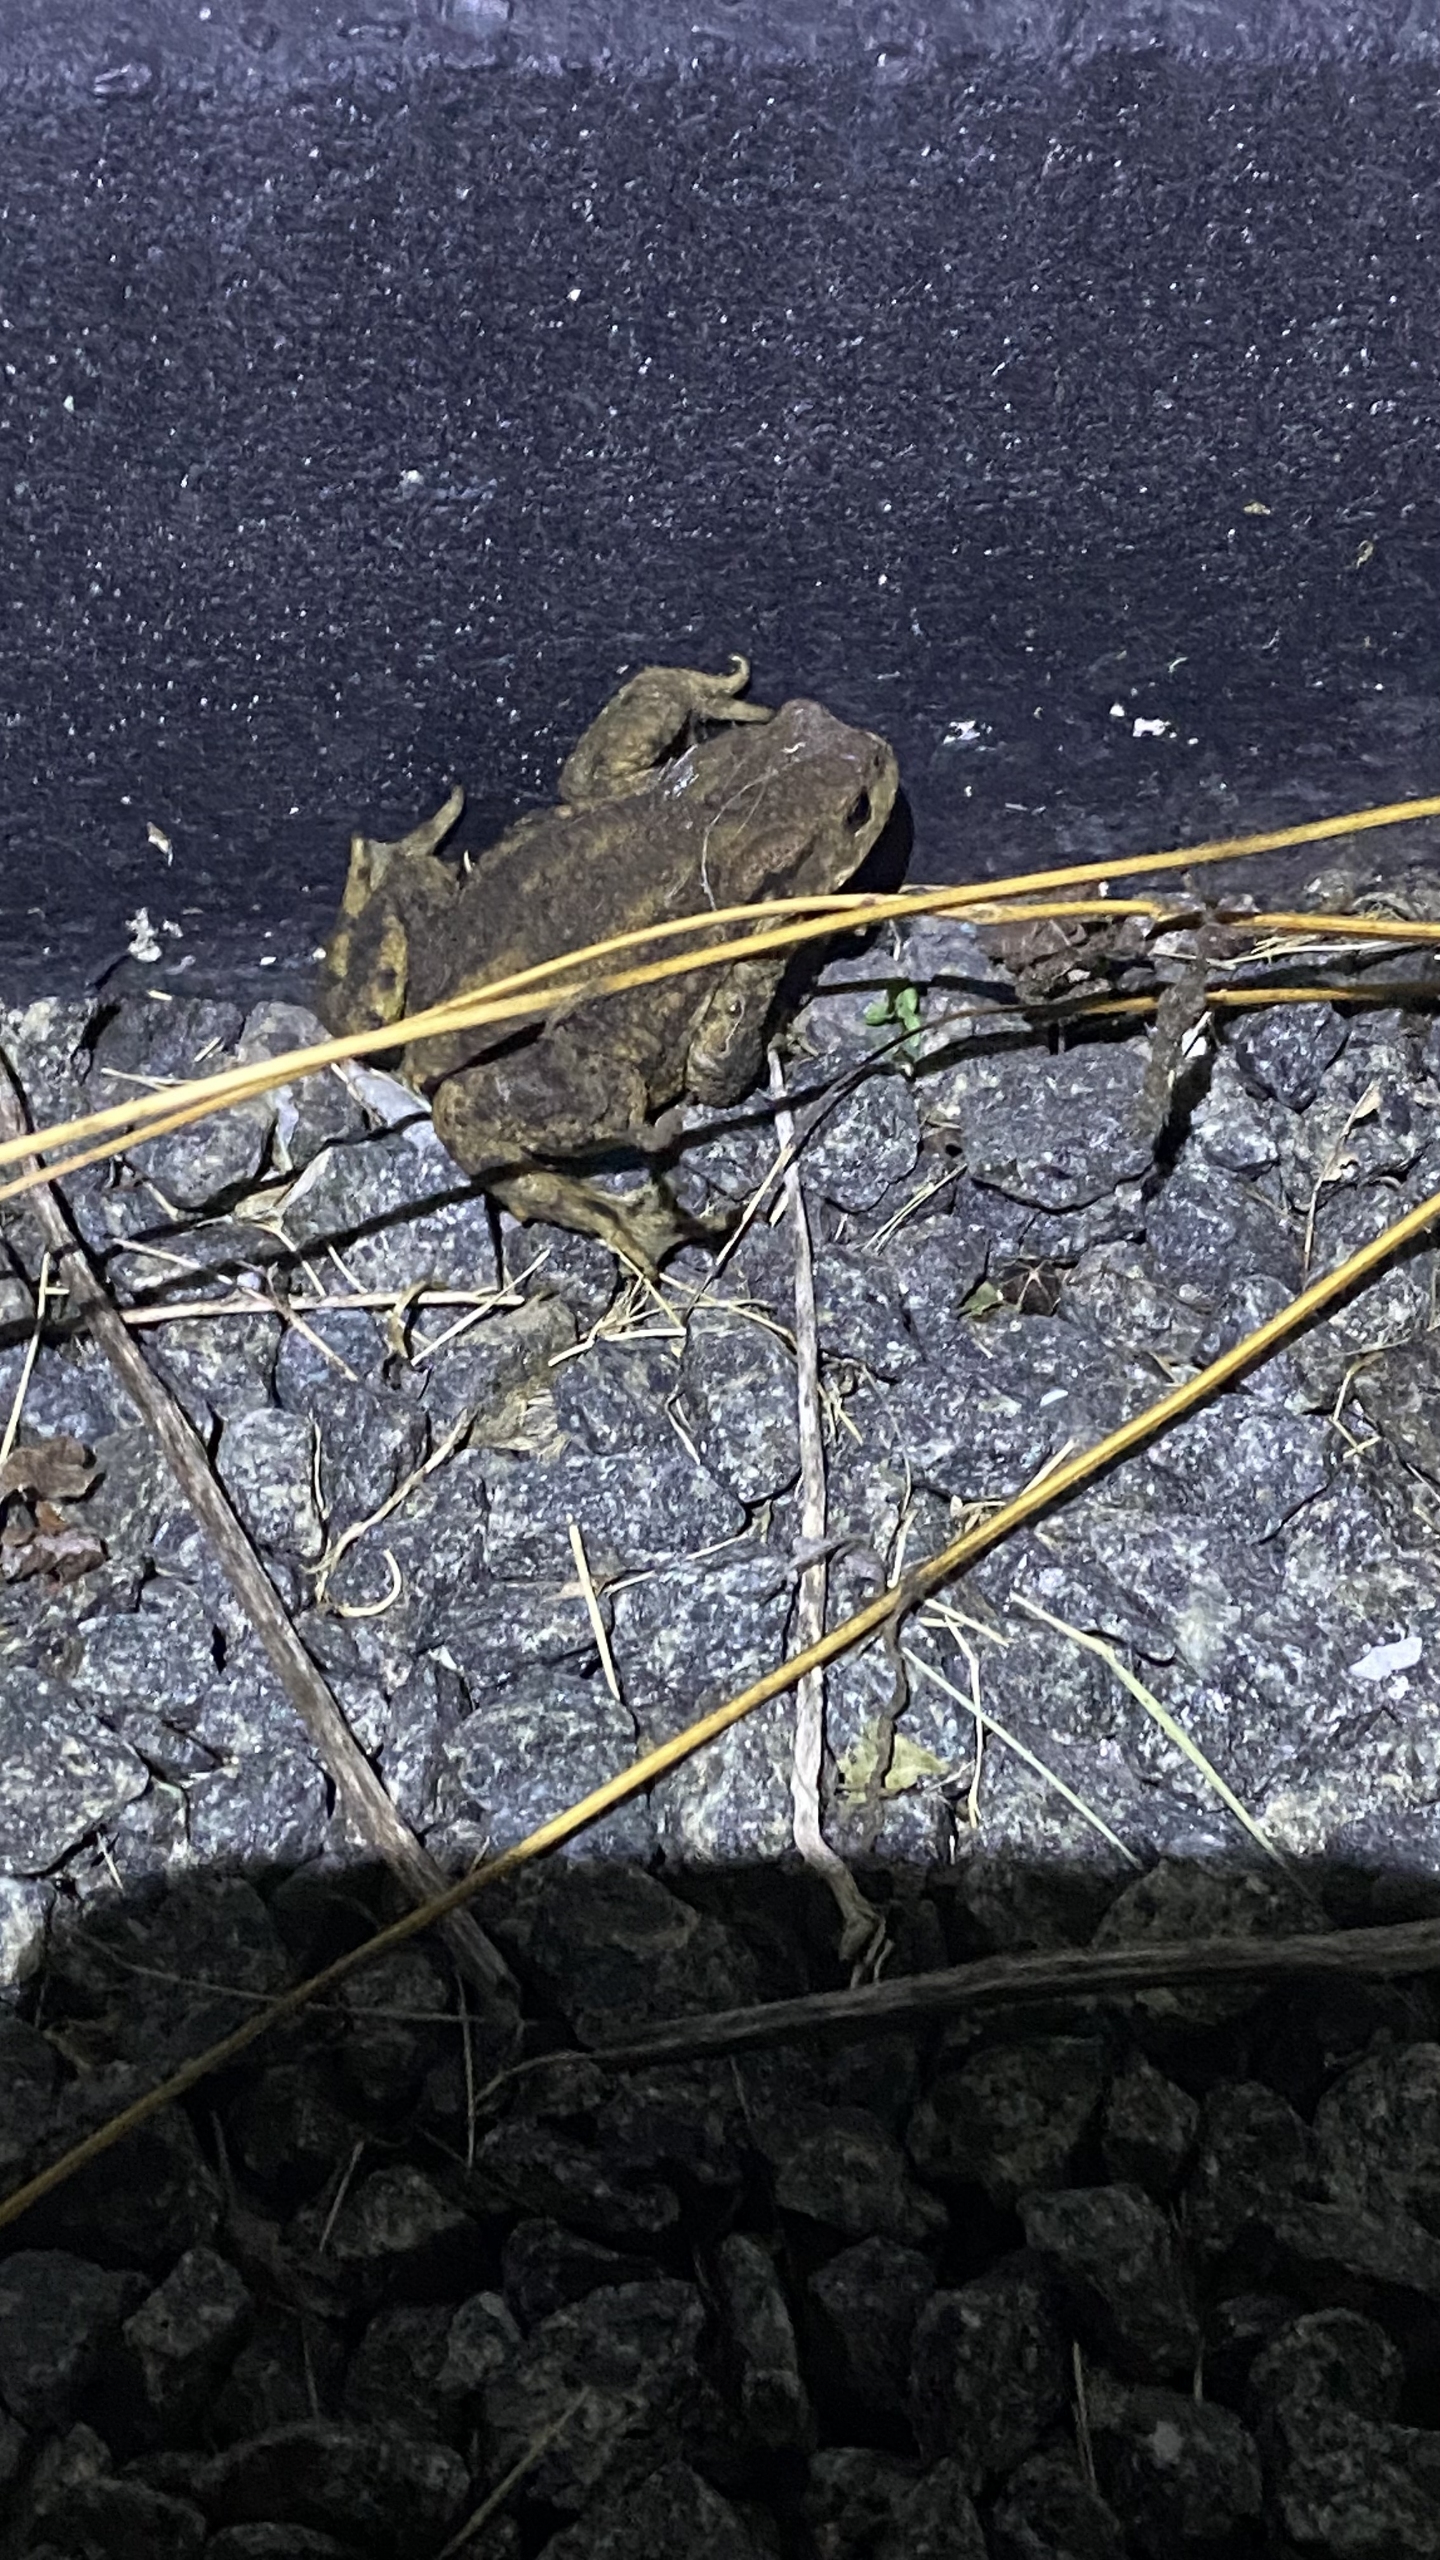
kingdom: Animalia
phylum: Chordata
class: Amphibia
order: Anura
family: Bufonidae
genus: Bufo
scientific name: Bufo bufo
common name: Skrubtudse
